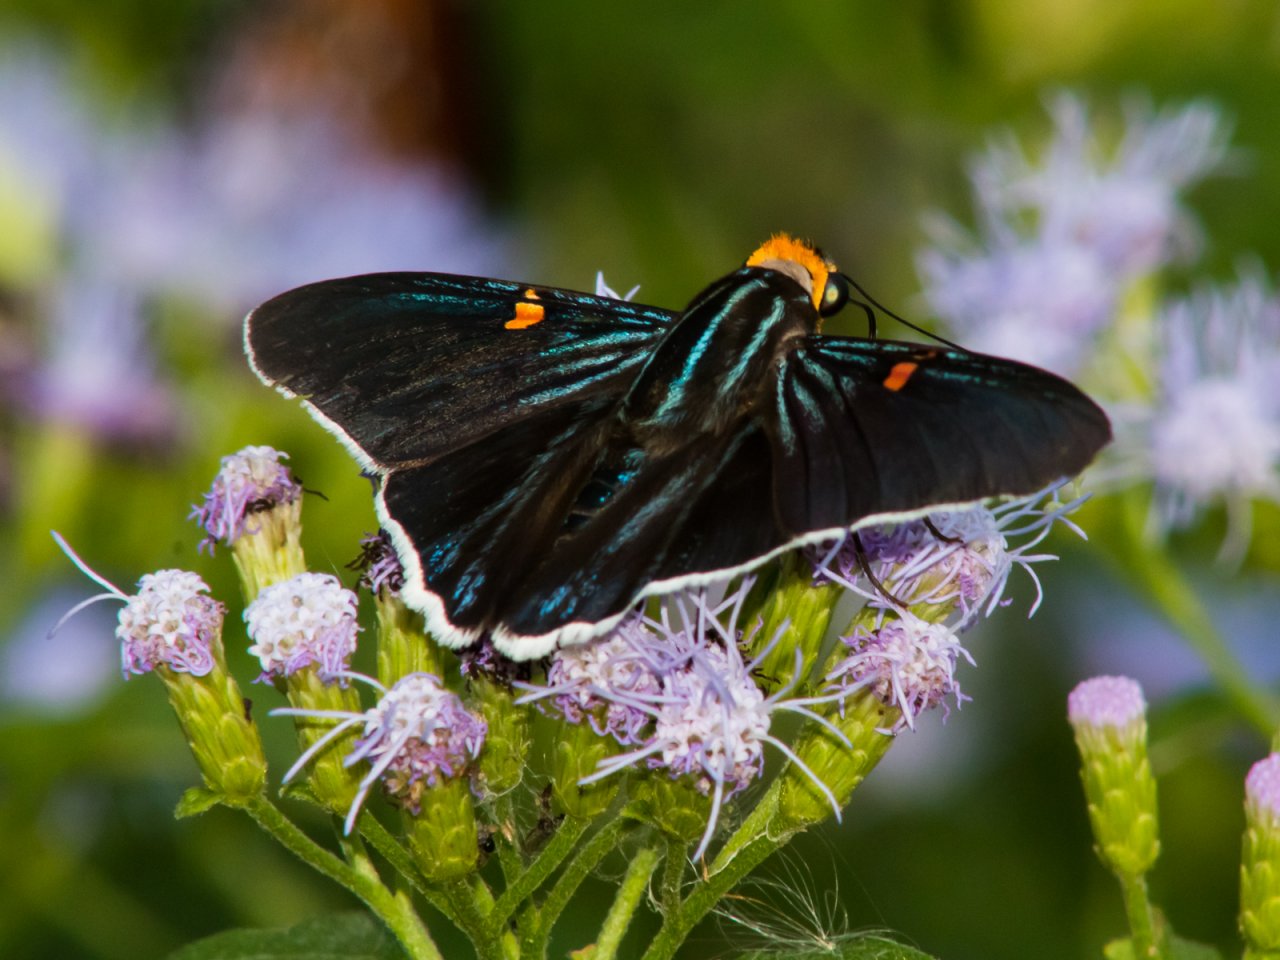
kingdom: Animalia
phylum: Arthropoda
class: Insecta
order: Lepidoptera
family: Hesperiidae
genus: Phocides
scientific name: Phocides polybius
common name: Guava Skipper
